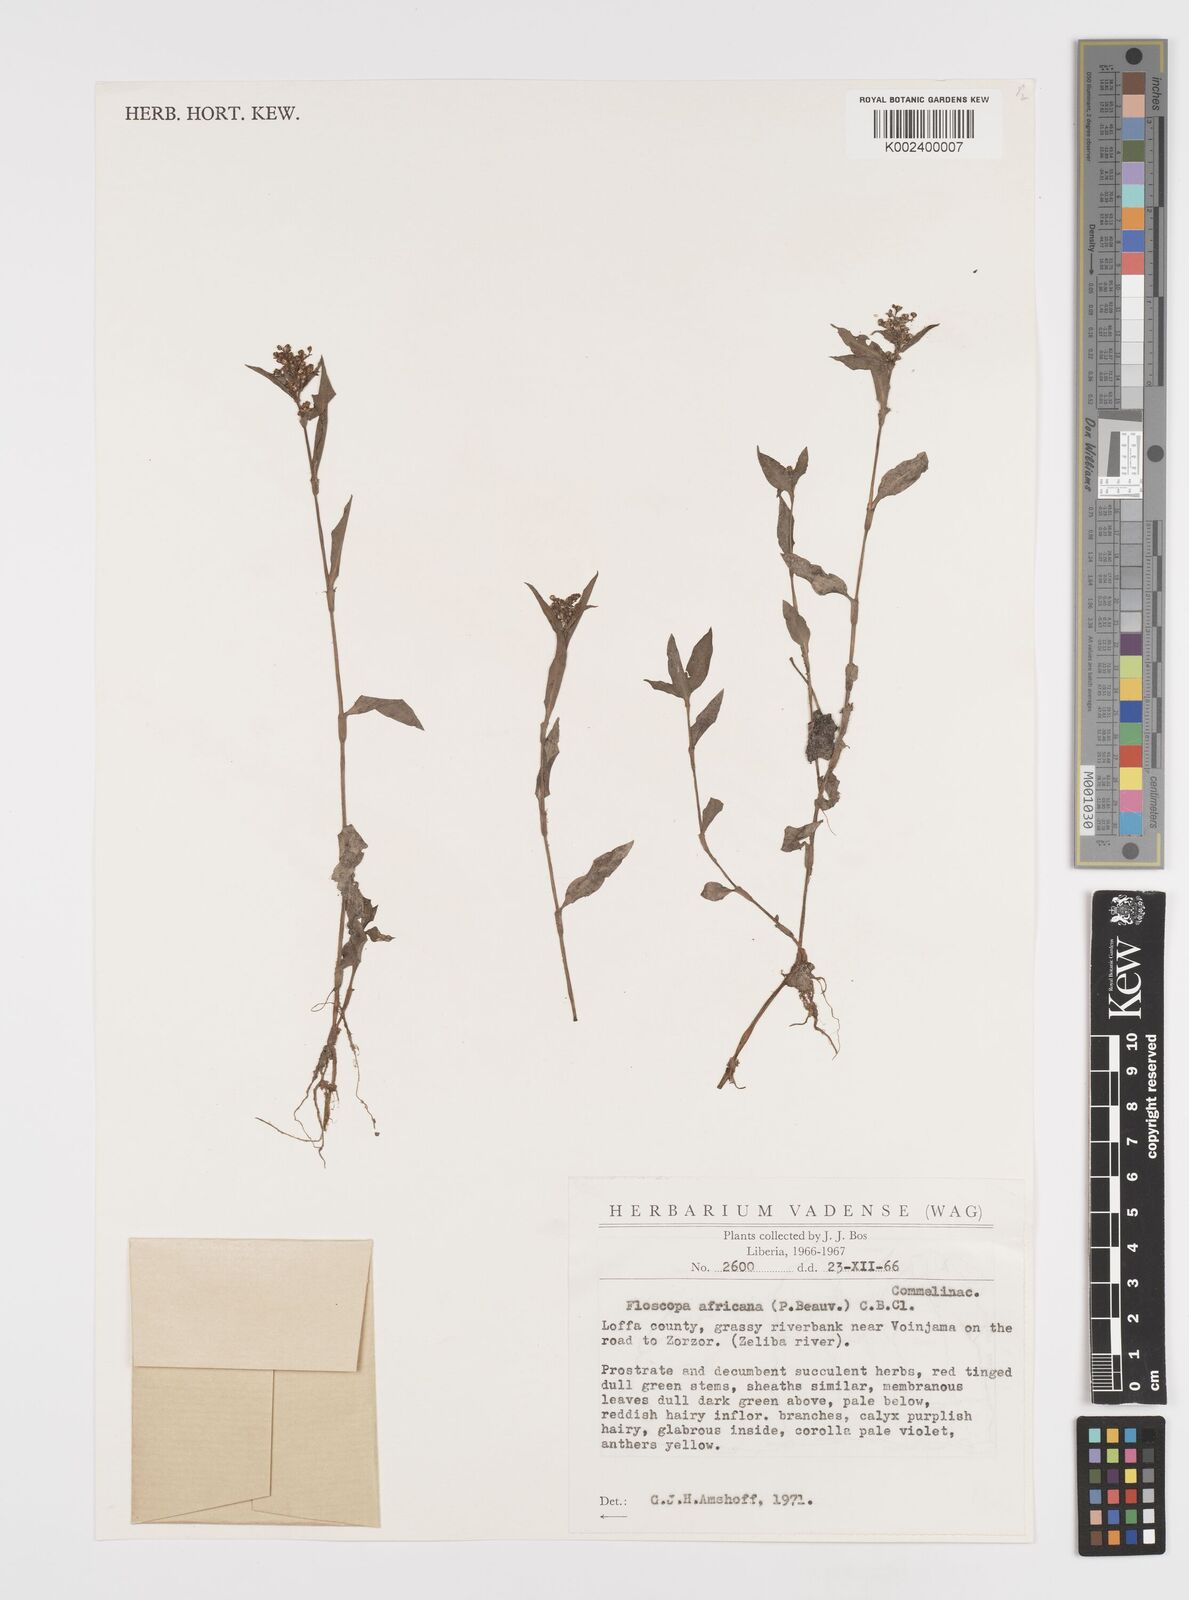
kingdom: Plantae
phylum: Tracheophyta
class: Liliopsida
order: Commelinales
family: Commelinaceae
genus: Floscopa
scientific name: Floscopa africana
